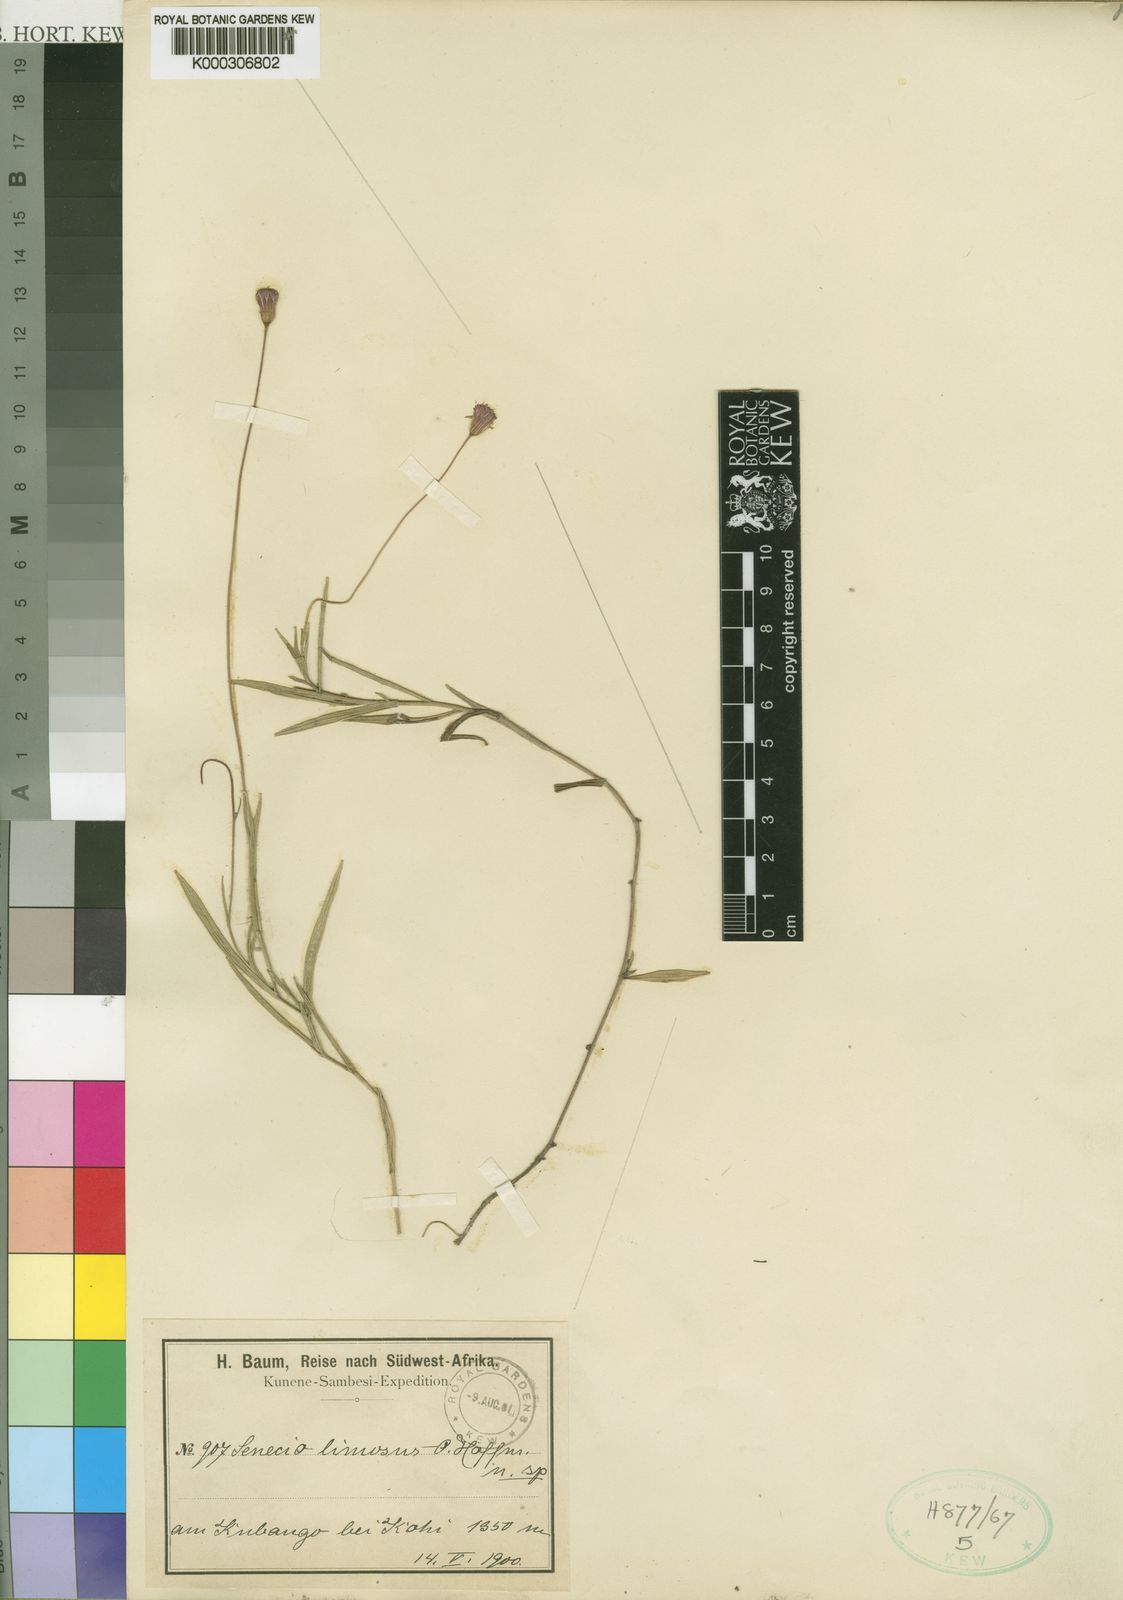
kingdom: Plantae
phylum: Tracheophyta
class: Magnoliopsida
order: Asterales
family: Asteraceae
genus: Emilia
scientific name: Emilia limosa
